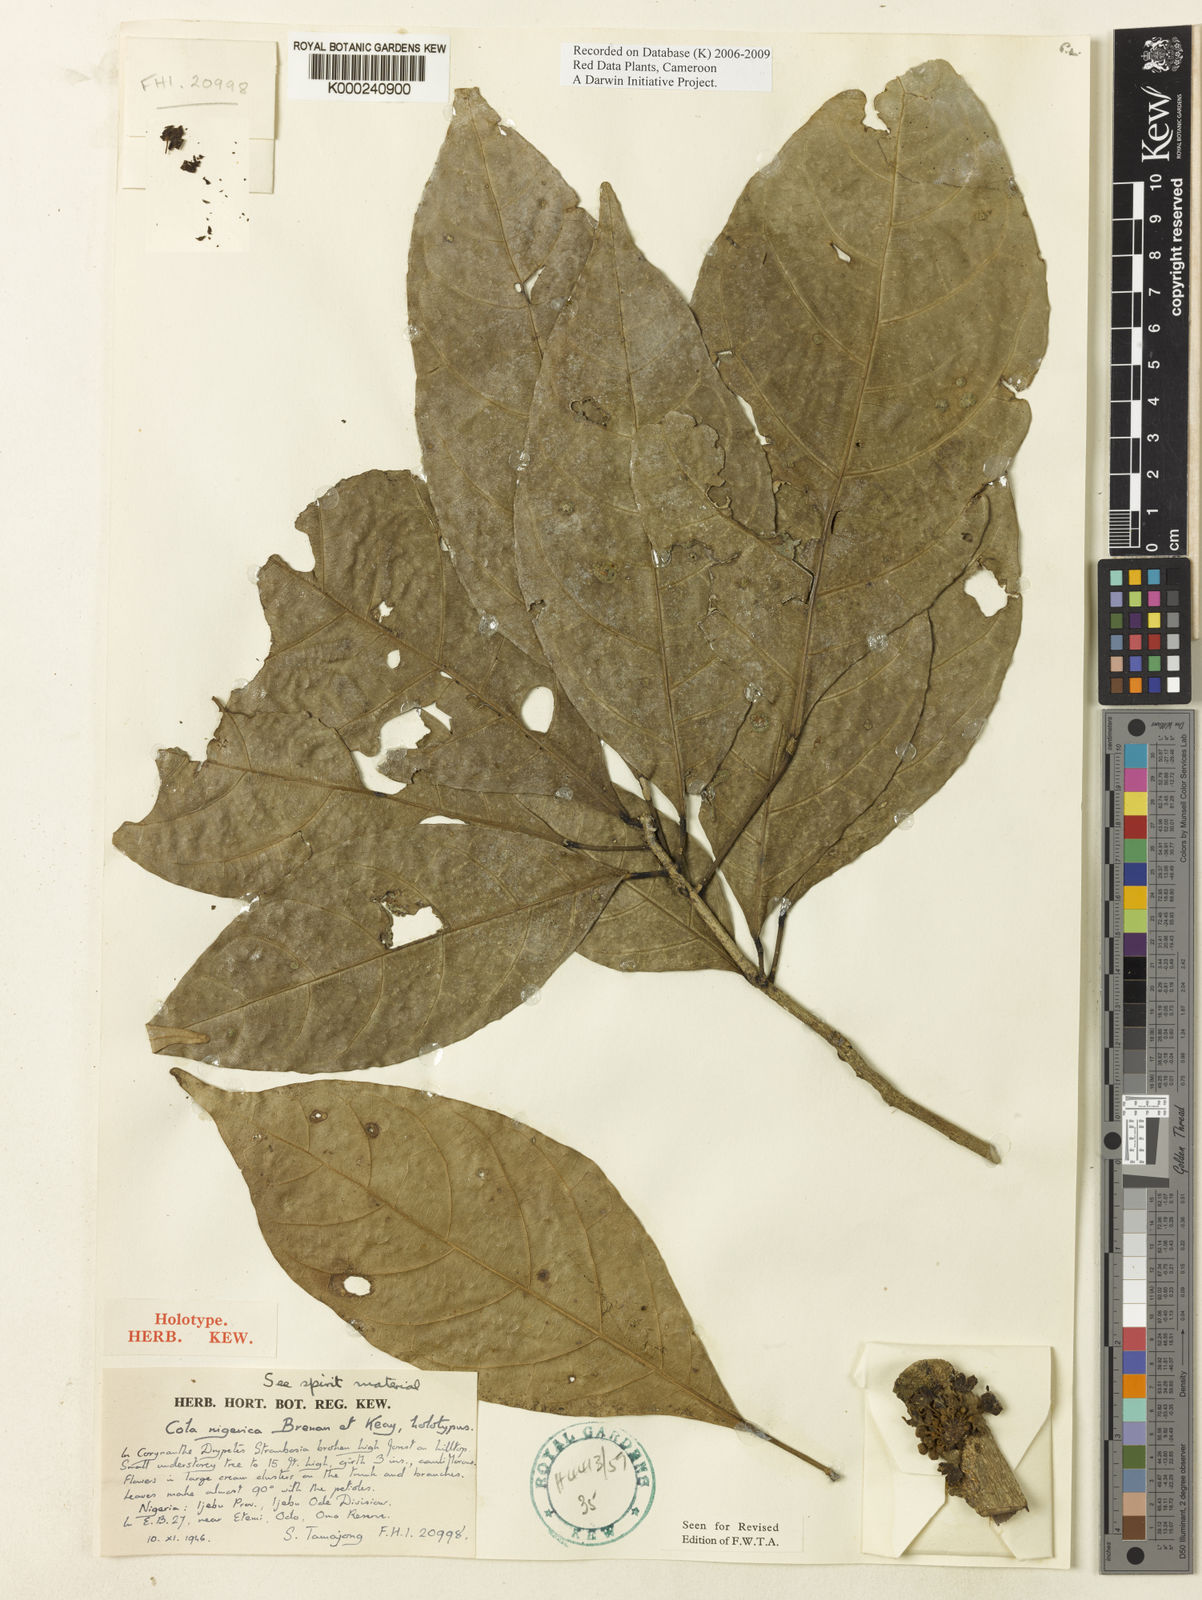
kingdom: Plantae
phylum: Tracheophyta
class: Magnoliopsida
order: Malvales
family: Malvaceae
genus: Cola
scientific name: Cola nigerica
